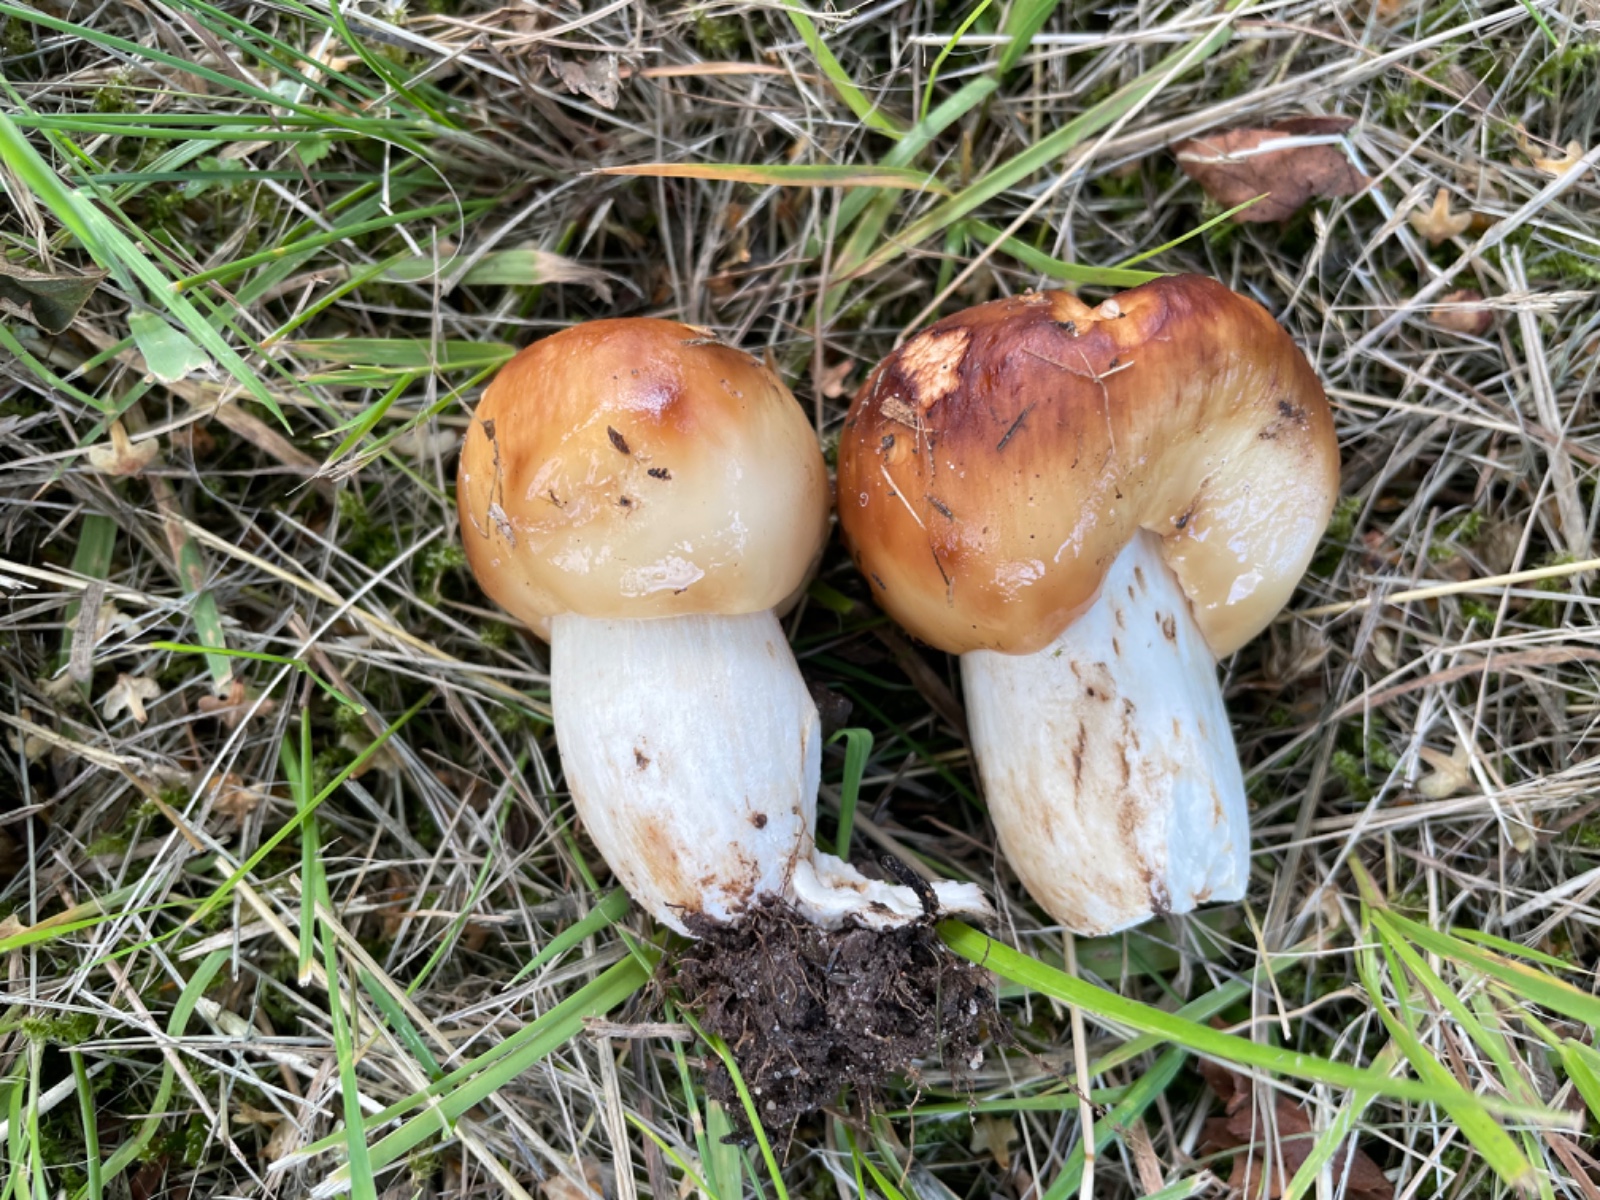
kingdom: Fungi
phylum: Basidiomycota
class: Agaricomycetes
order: Russulales
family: Russulaceae
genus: Russula
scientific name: Russula foetens
